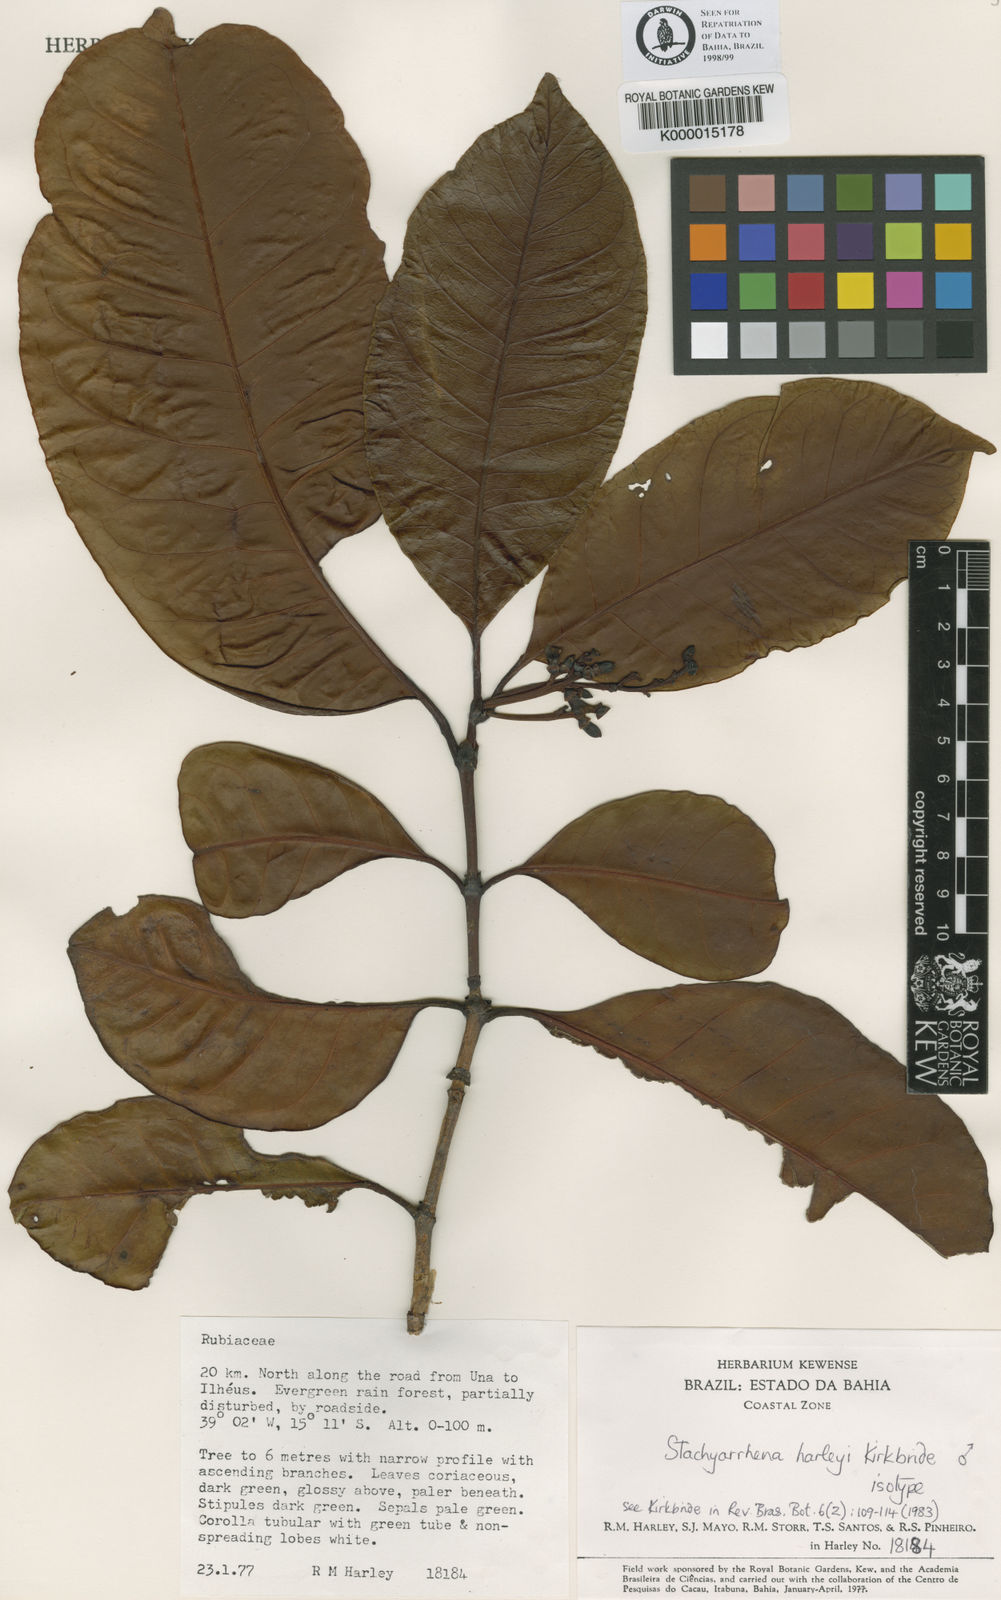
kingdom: Plantae
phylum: Tracheophyta
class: Magnoliopsida
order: Gentianales
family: Rubiaceae
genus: Stachyarrhena
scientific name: Stachyarrhena harleyi
